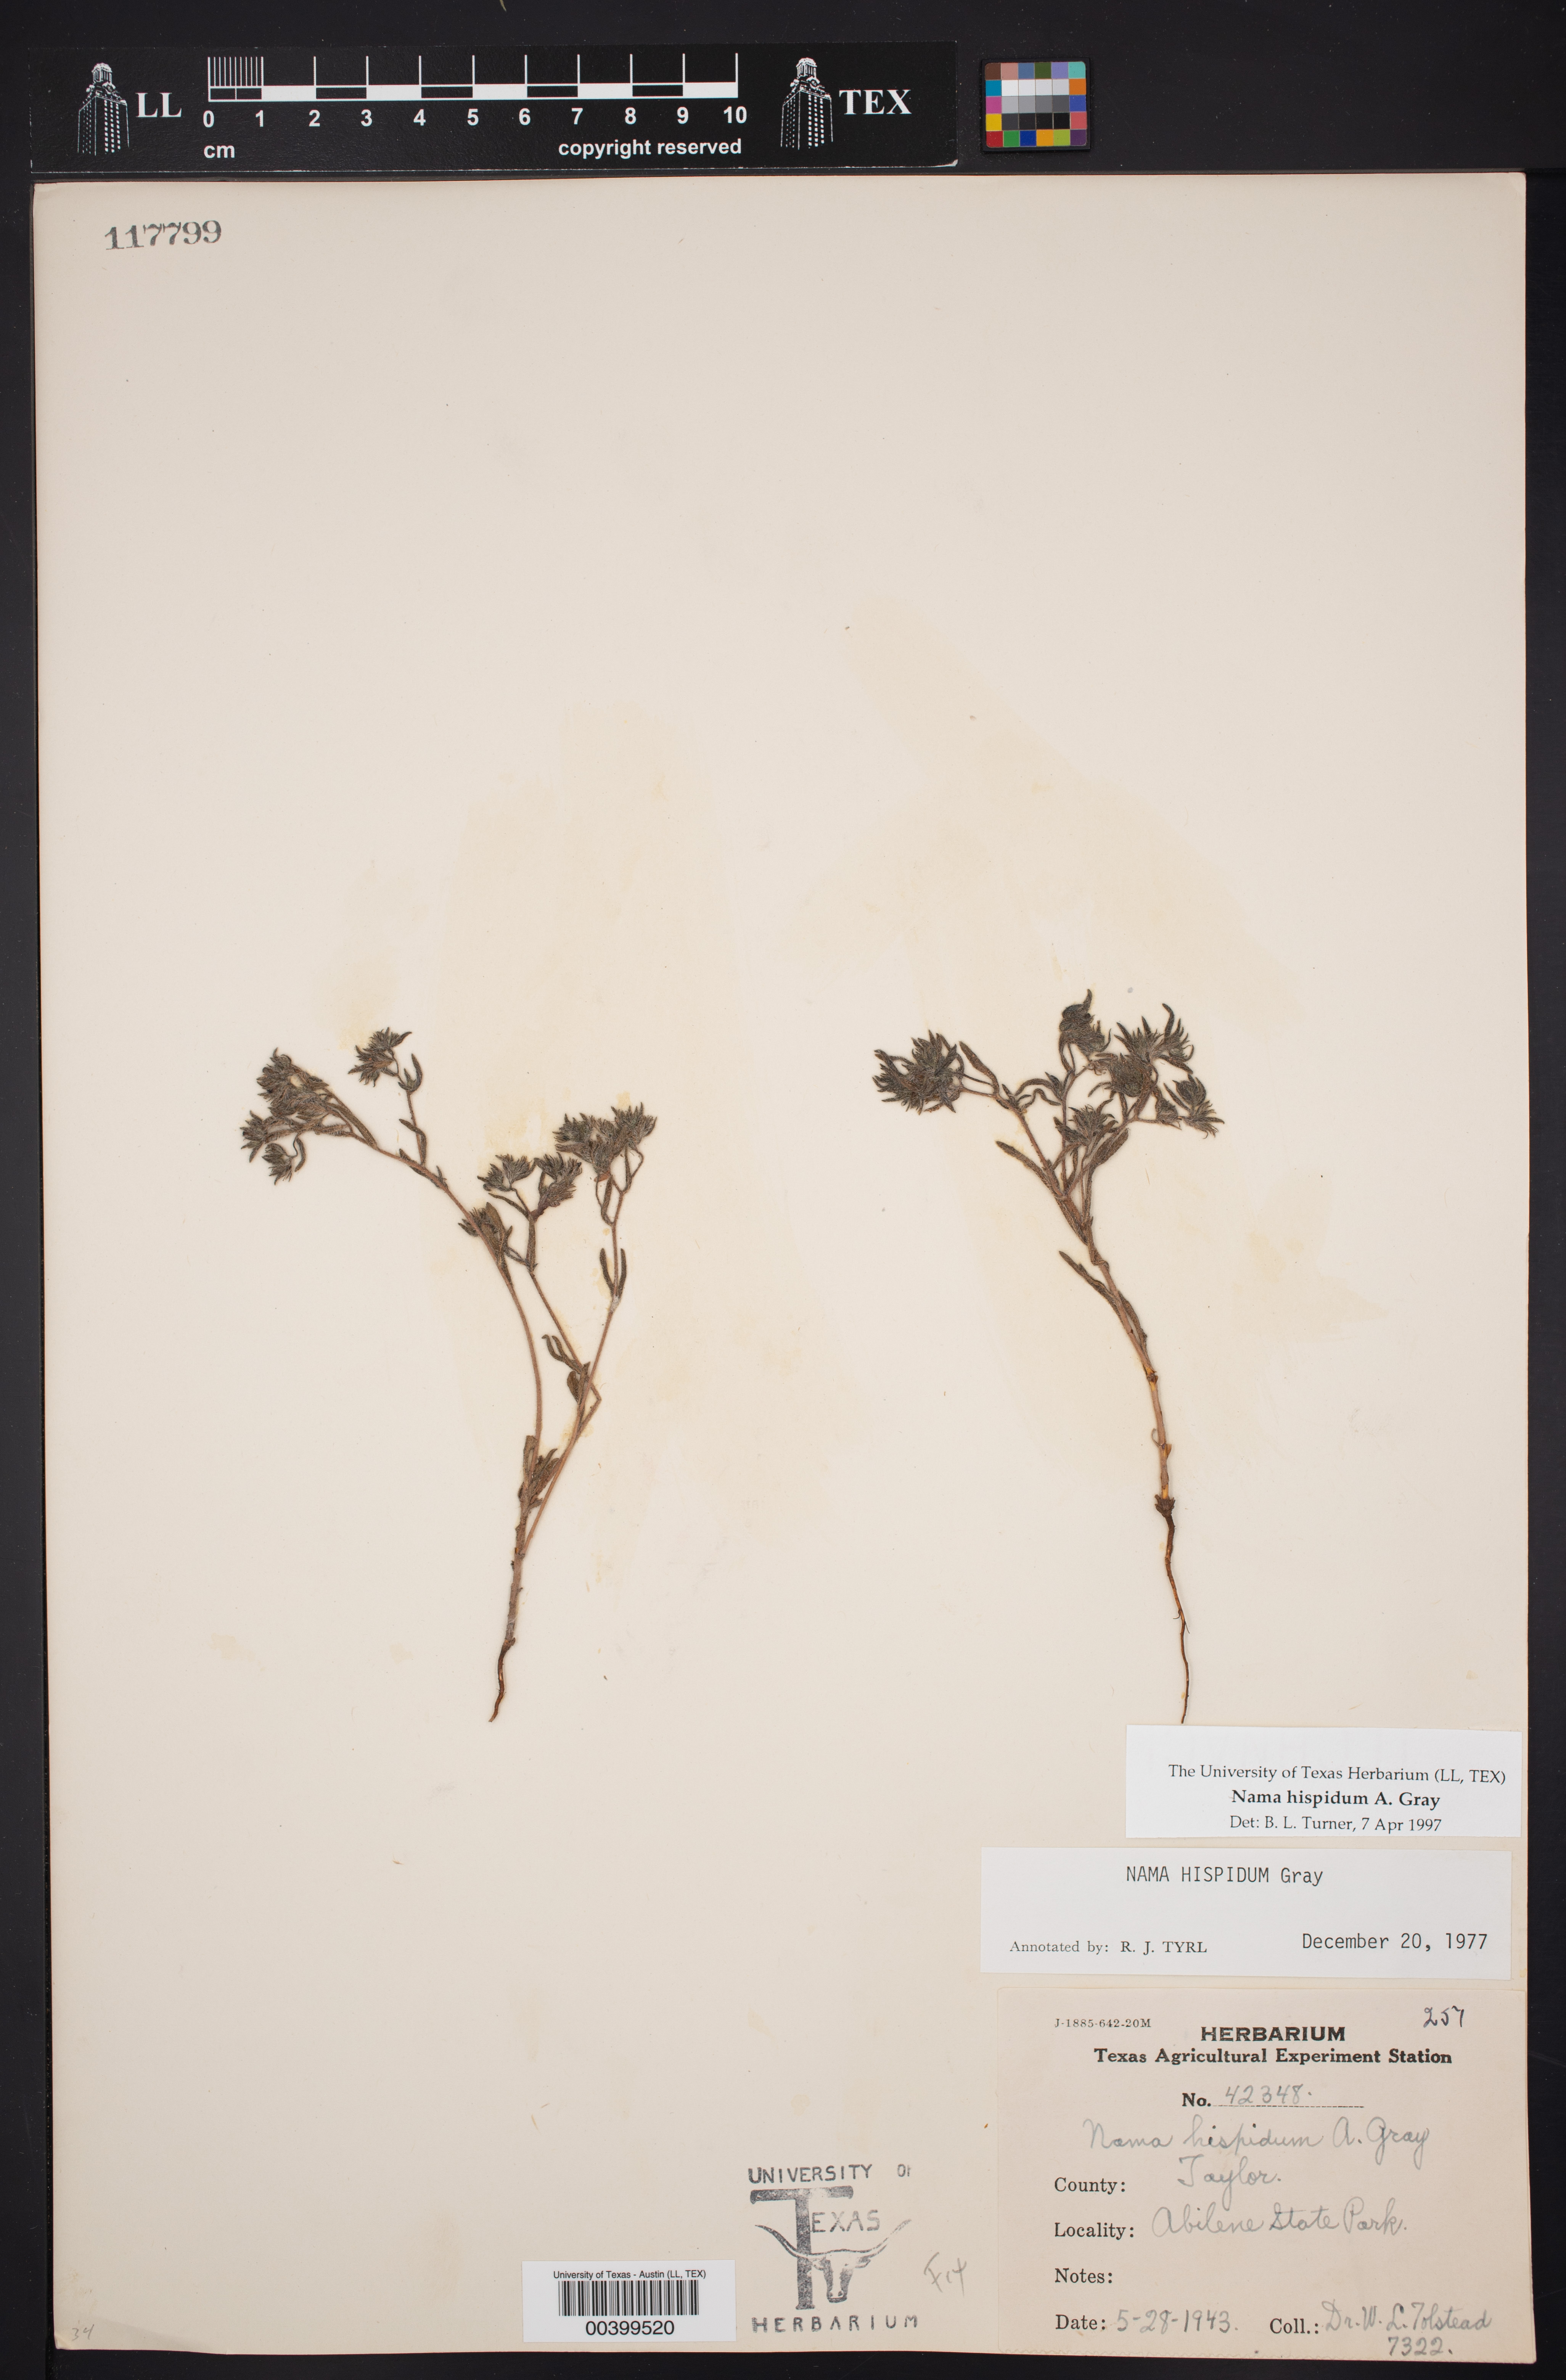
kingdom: Plantae
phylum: Tracheophyta
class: Magnoliopsida
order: Boraginales
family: Namaceae
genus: Nama
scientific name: Nama hispida
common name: Bristly nama
